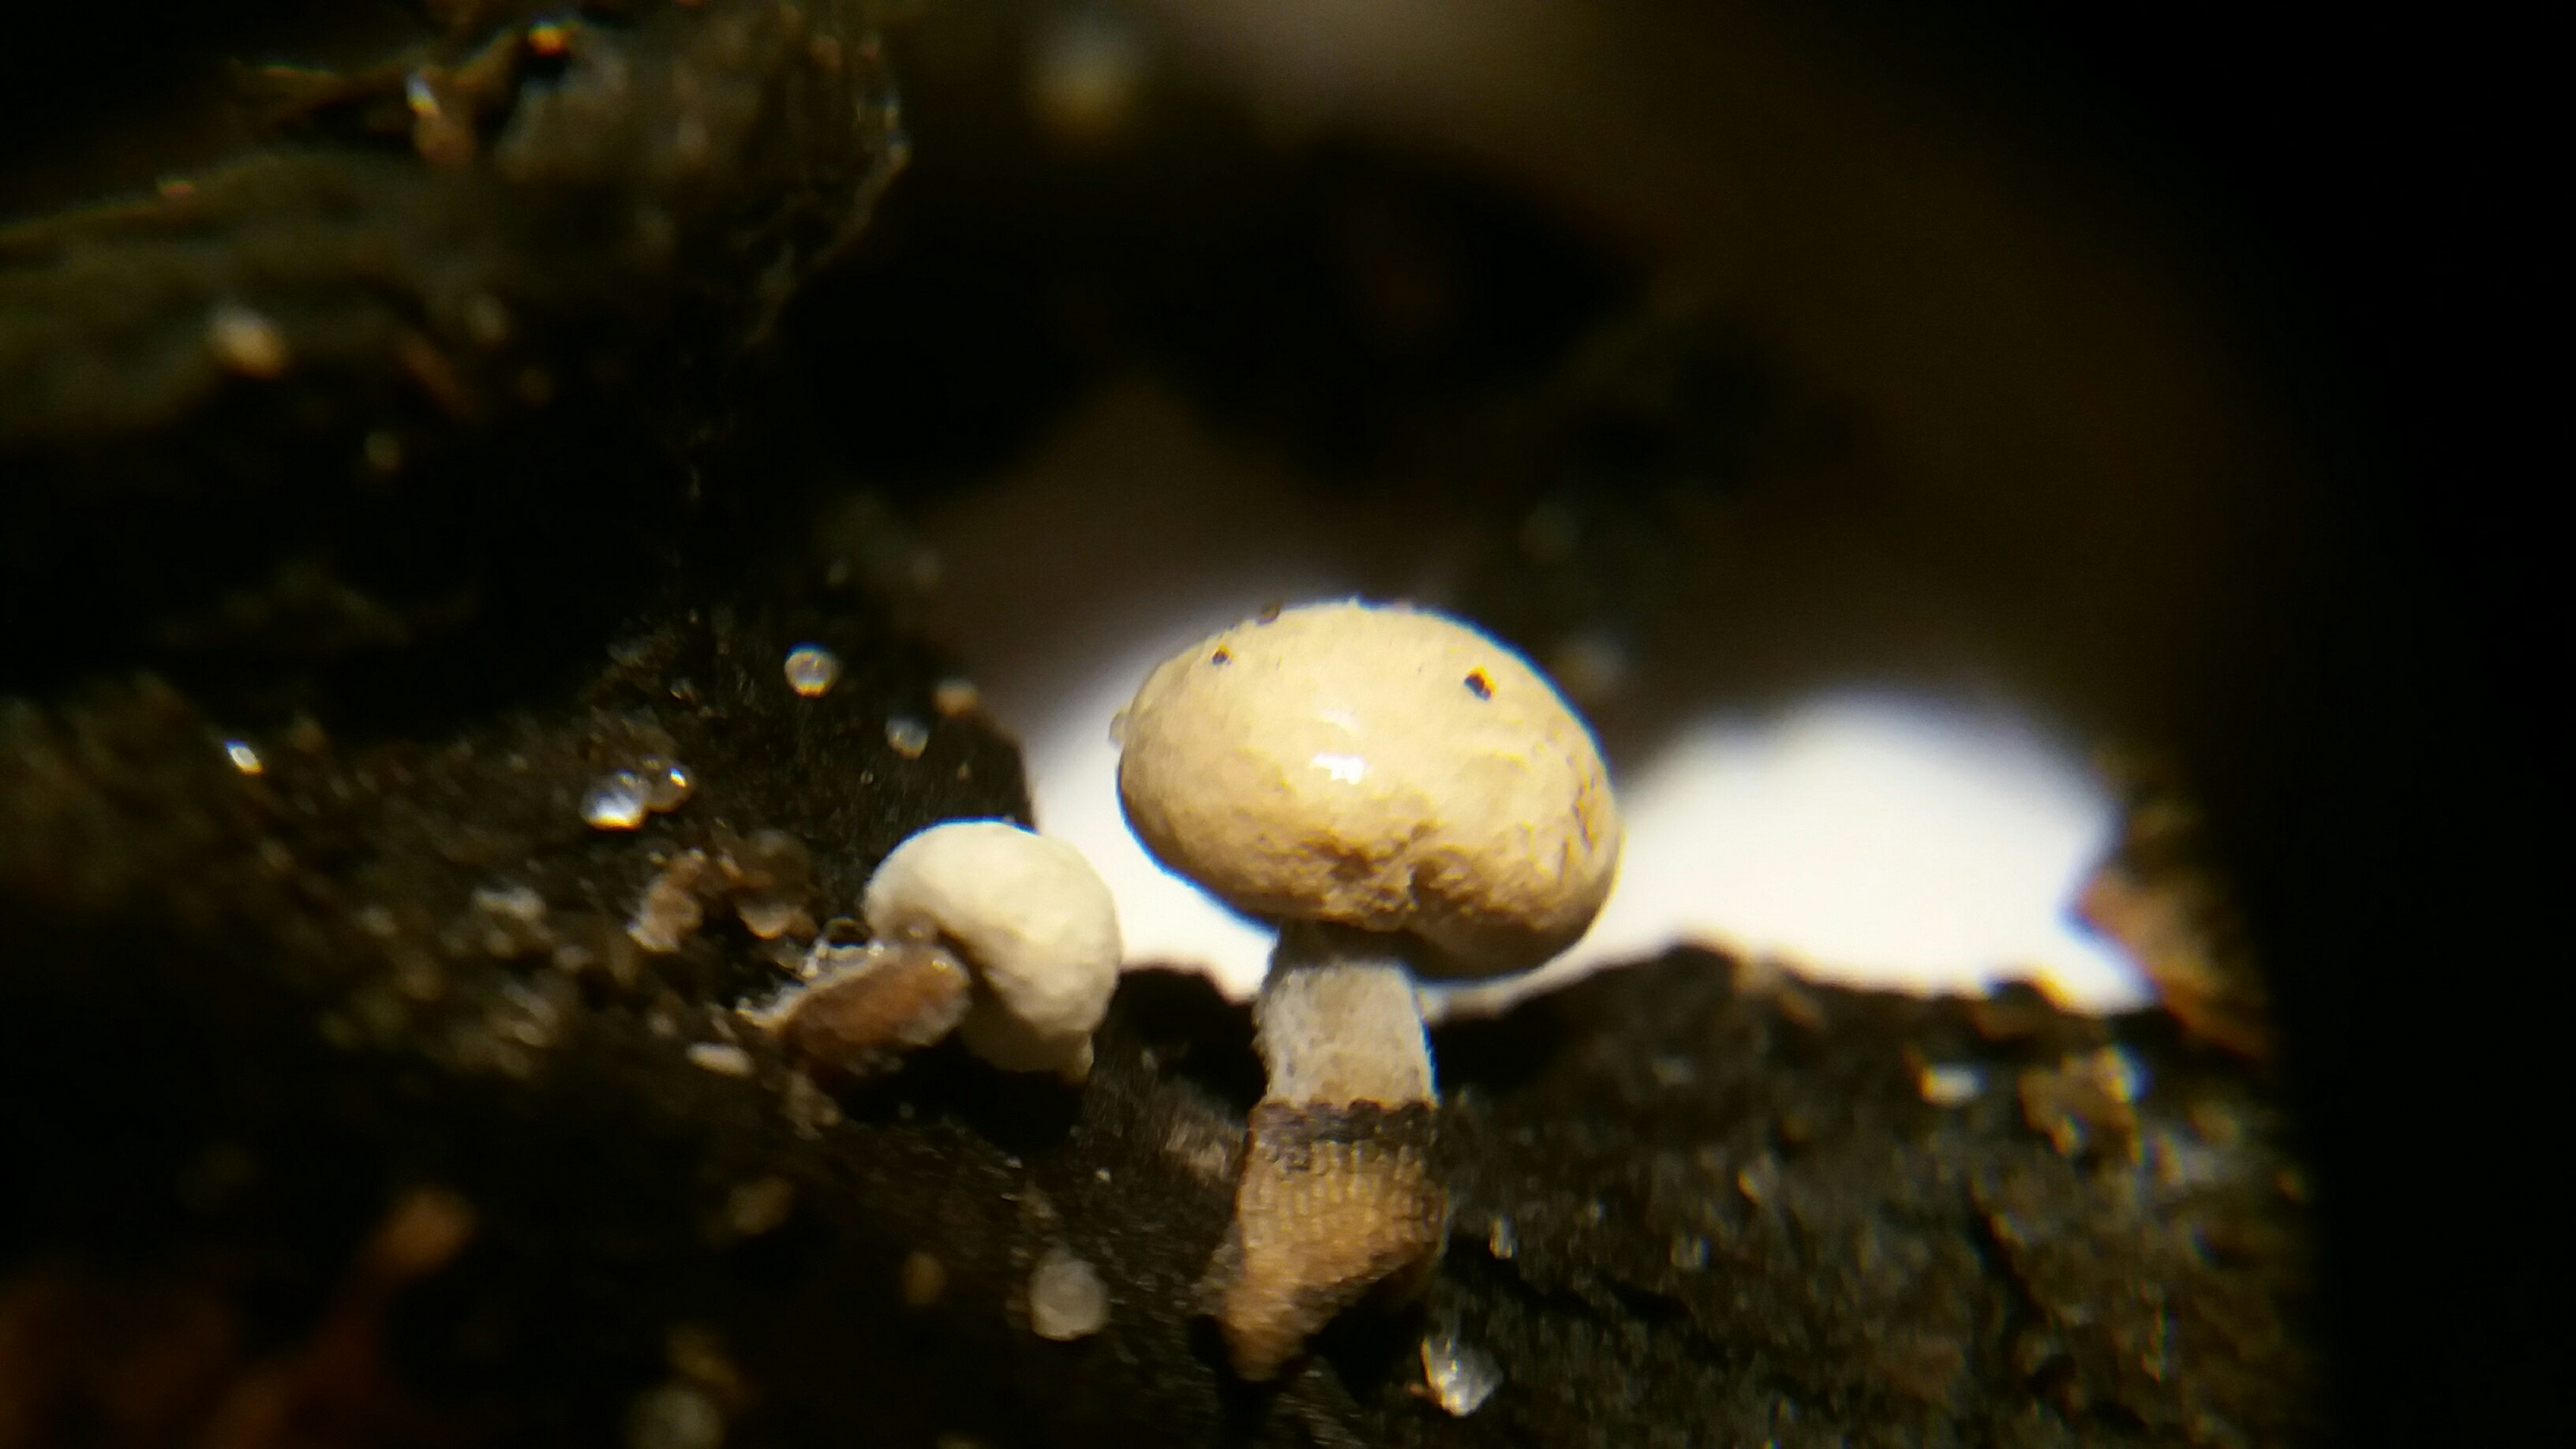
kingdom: Fungi
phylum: Basidiomycota
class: Agaricomycetes
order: Agaricales
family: Lyophyllaceae
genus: Asterophora
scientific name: Asterophora lycoperdoides
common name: brunpudret snyltehat
